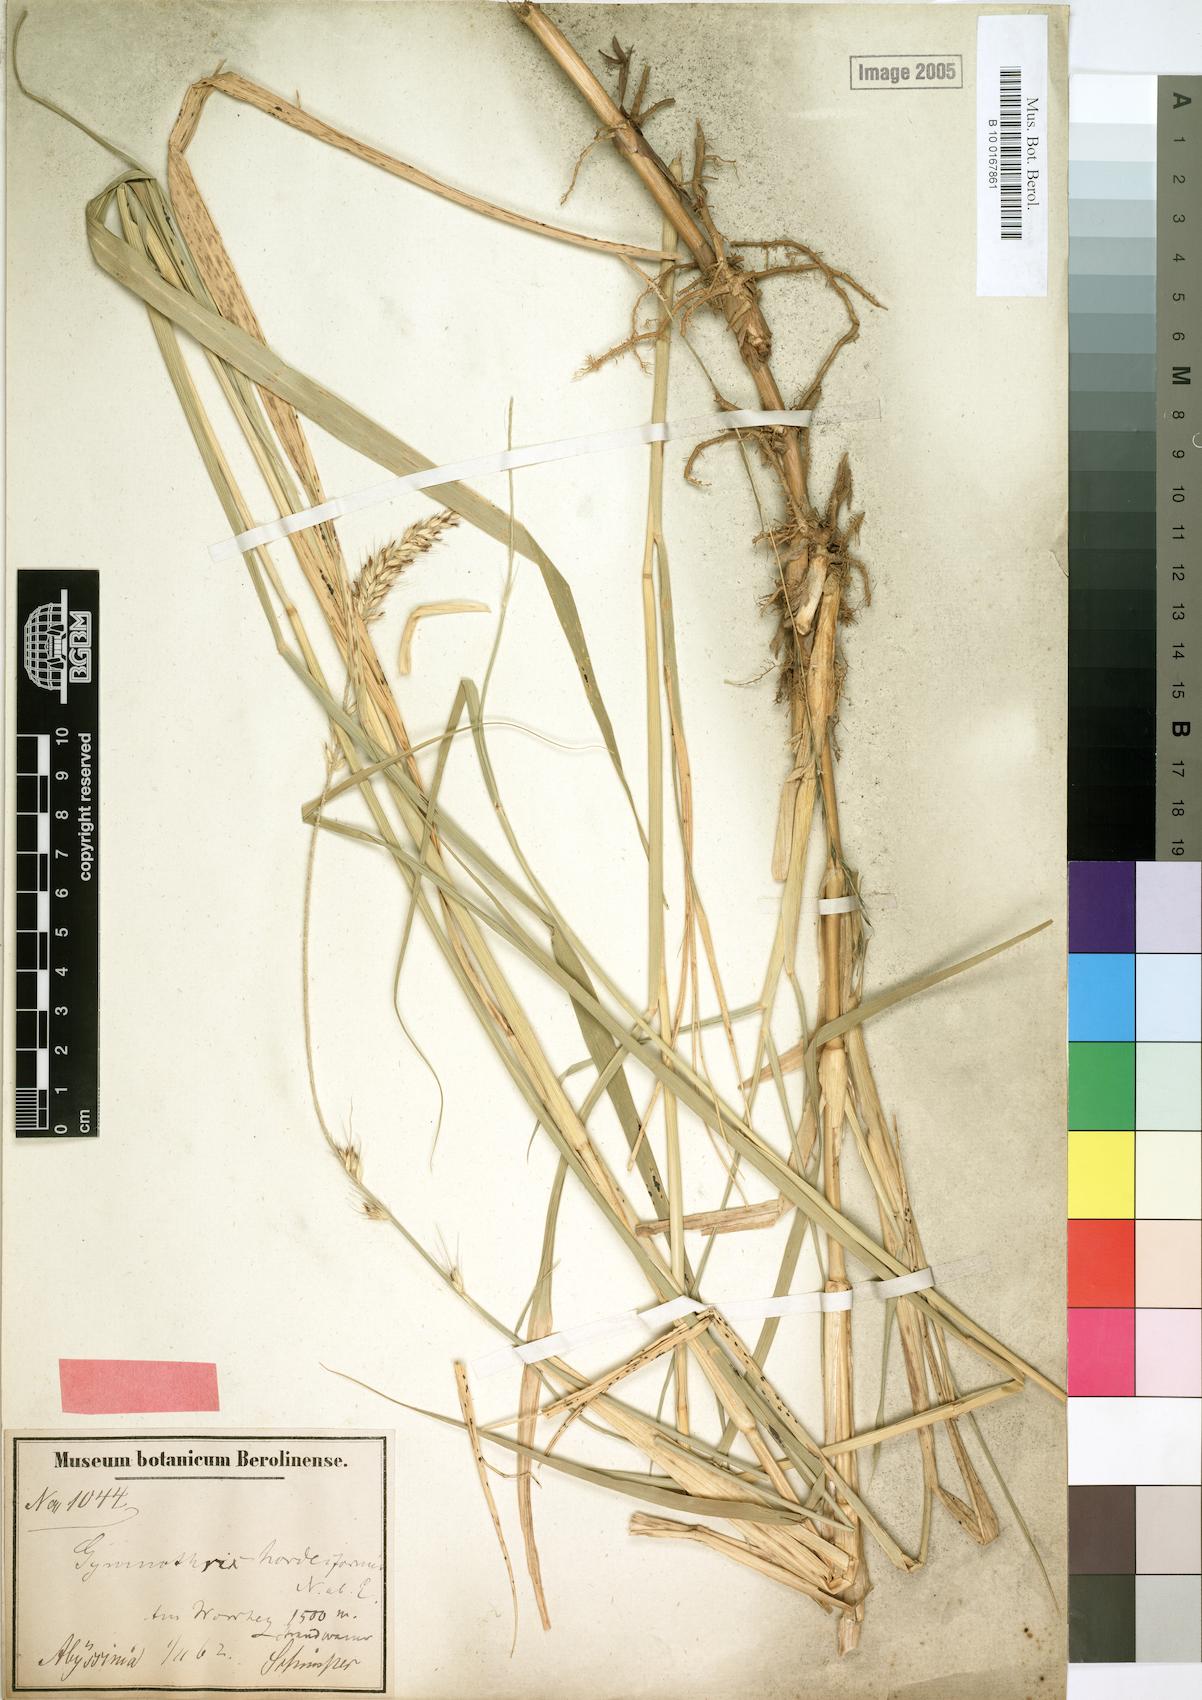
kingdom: Plantae
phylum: Tracheophyta
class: Liliopsida
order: Poales
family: Poaceae
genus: Cenchrus
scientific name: Cenchrus caudatus
